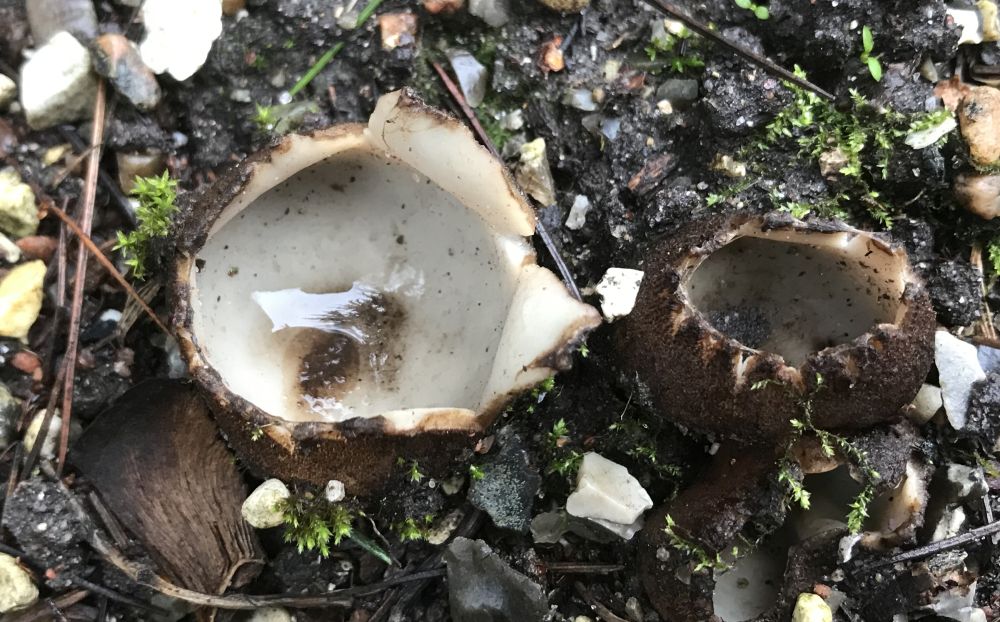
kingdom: Fungi
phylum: Ascomycota
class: Pezizomycetes
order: Pezizales
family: Pyronemataceae
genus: Geopora
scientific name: Geopora sumneriana
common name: vår-jordbæger
